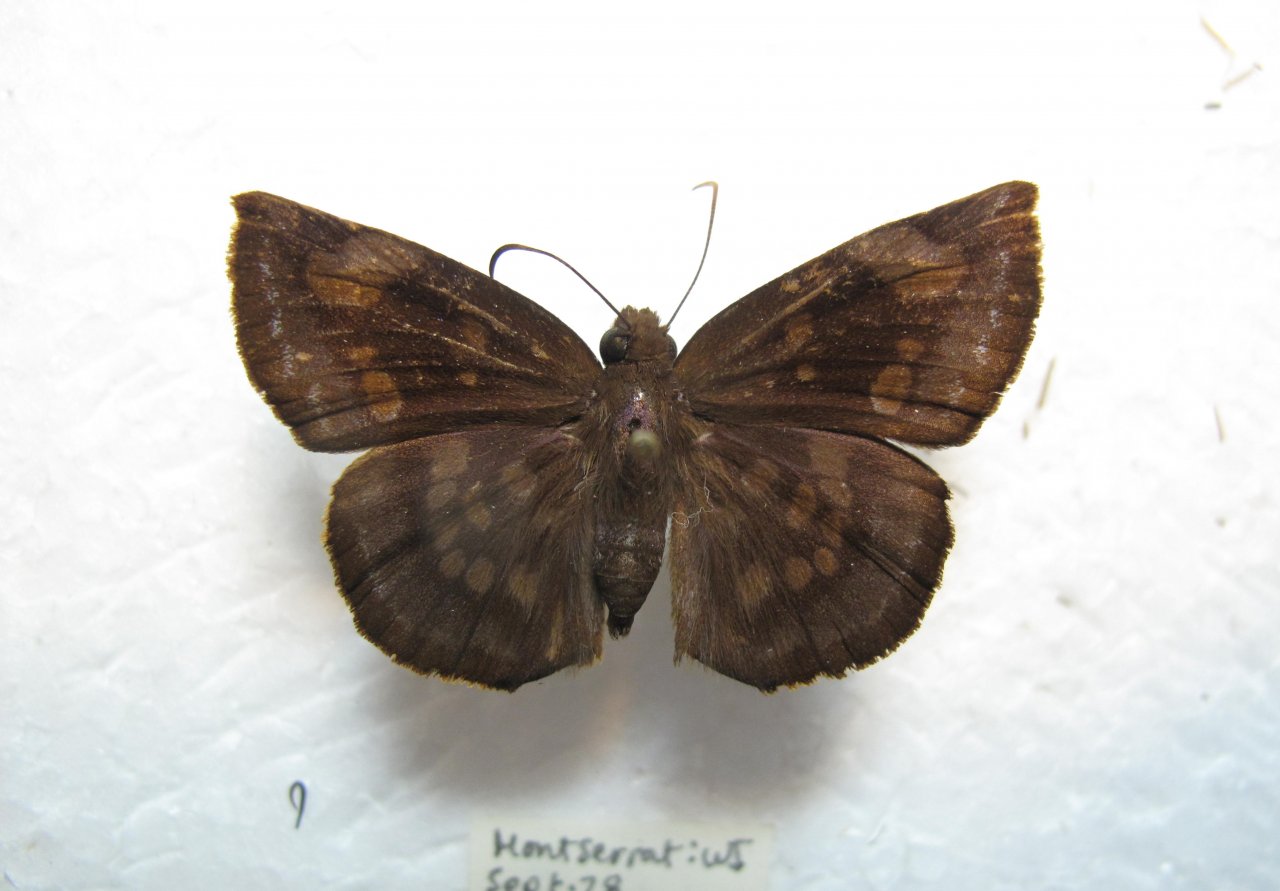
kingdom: Animalia
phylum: Arthropoda
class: Insecta
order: Lepidoptera
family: Hesperiidae
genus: Achlyodes
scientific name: Achlyodes Eantis minor
